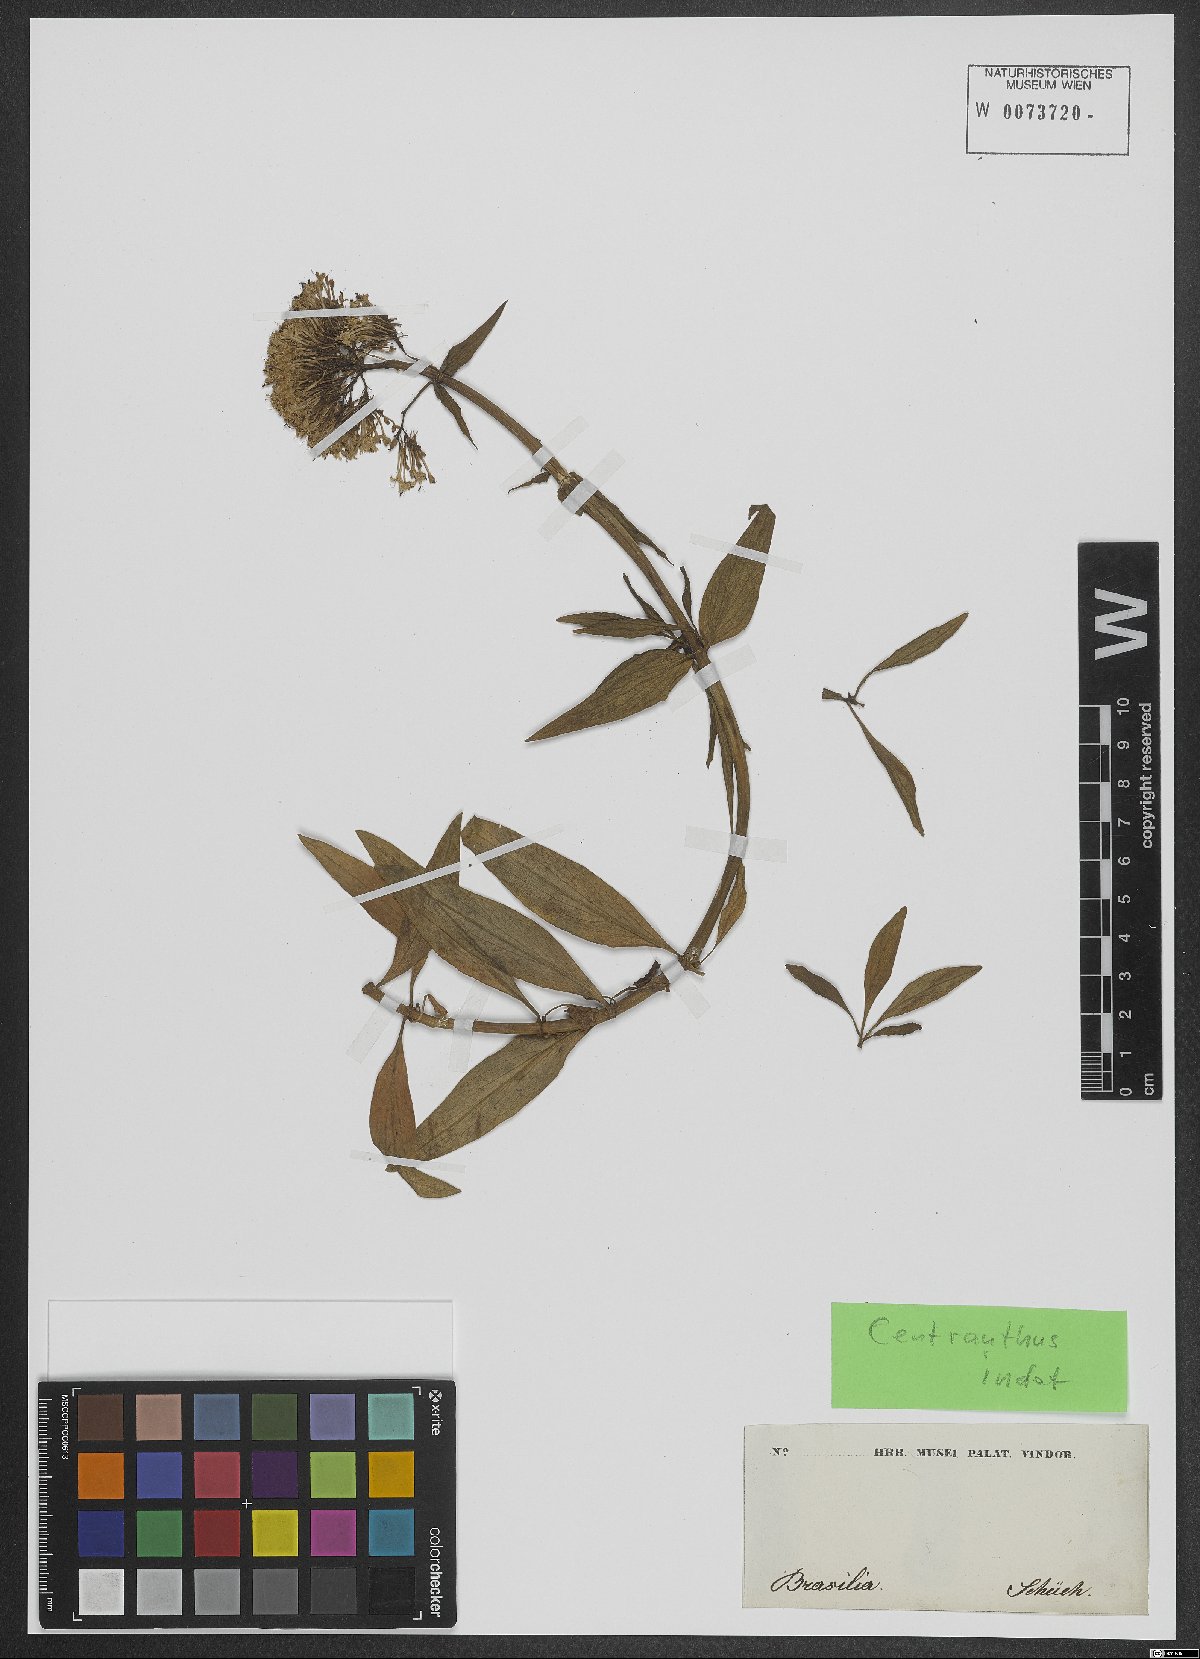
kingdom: Plantae
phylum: Tracheophyta
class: Magnoliopsida
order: Dipsacales
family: Caprifoliaceae
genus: Centranthus
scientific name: Centranthus
